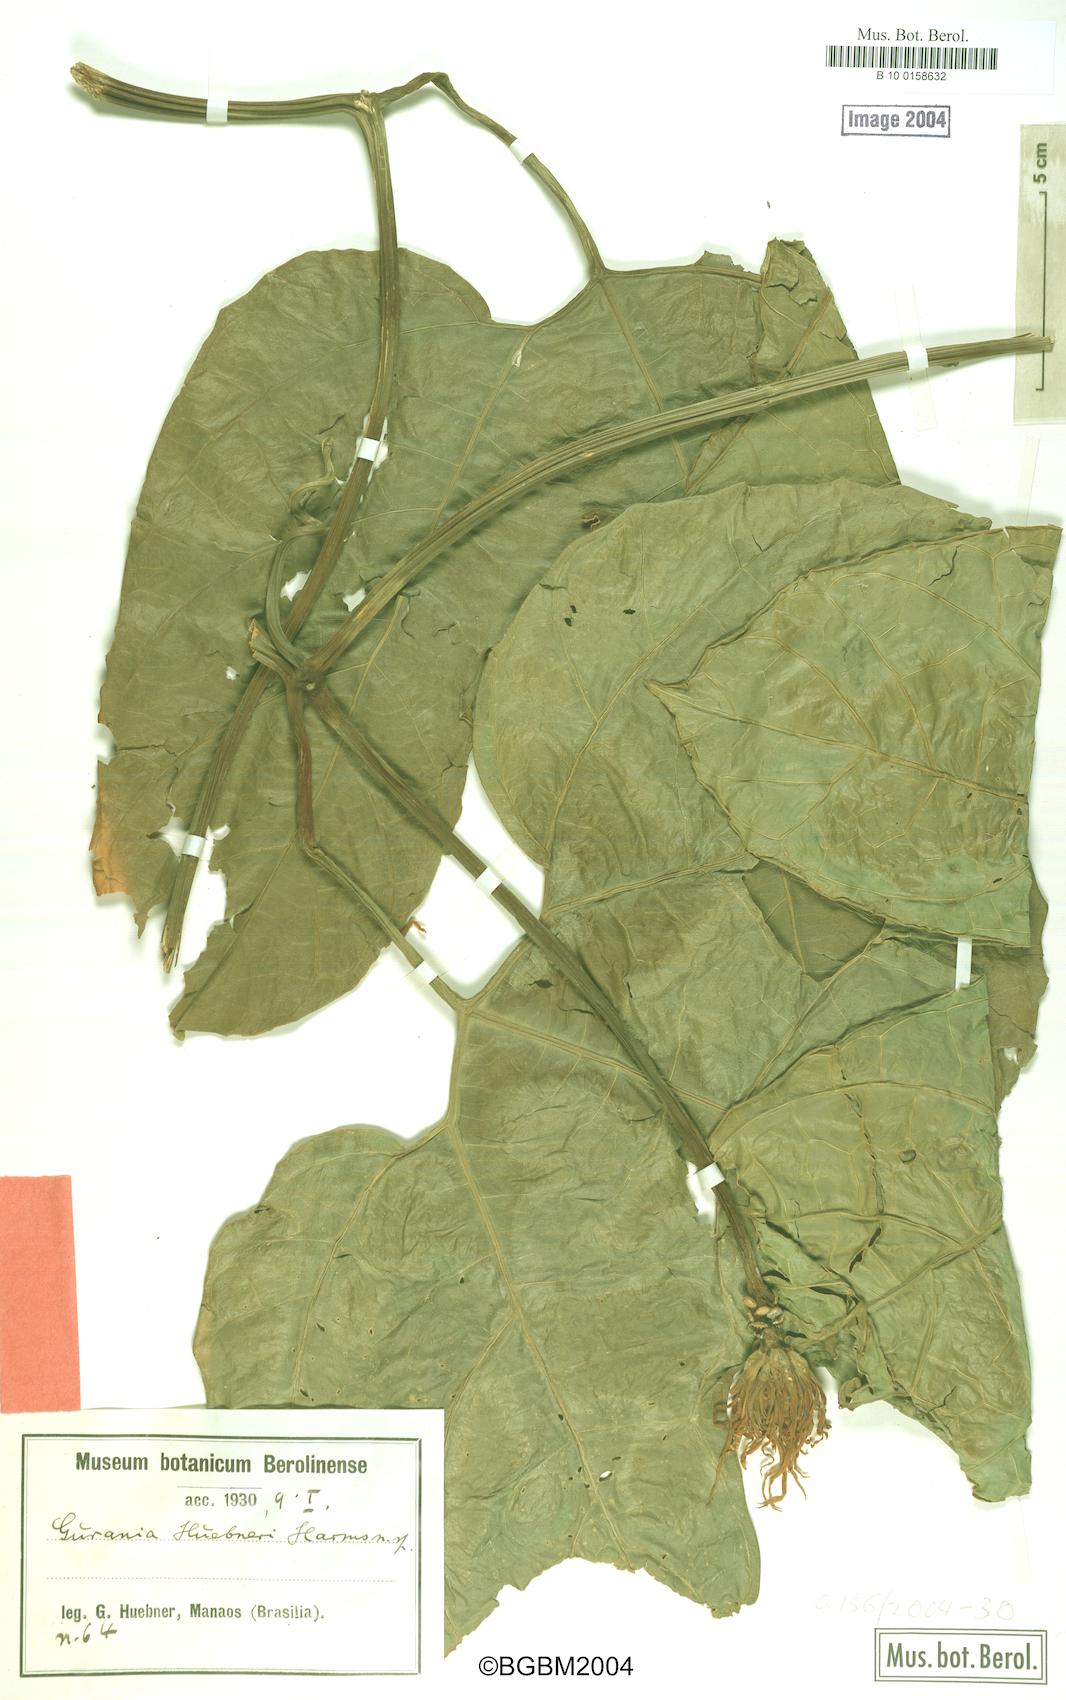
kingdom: Plantae
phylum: Tracheophyta
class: Magnoliopsida
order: Cucurbitales
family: Cucurbitaceae
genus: Gurania
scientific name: Gurania huebneri
